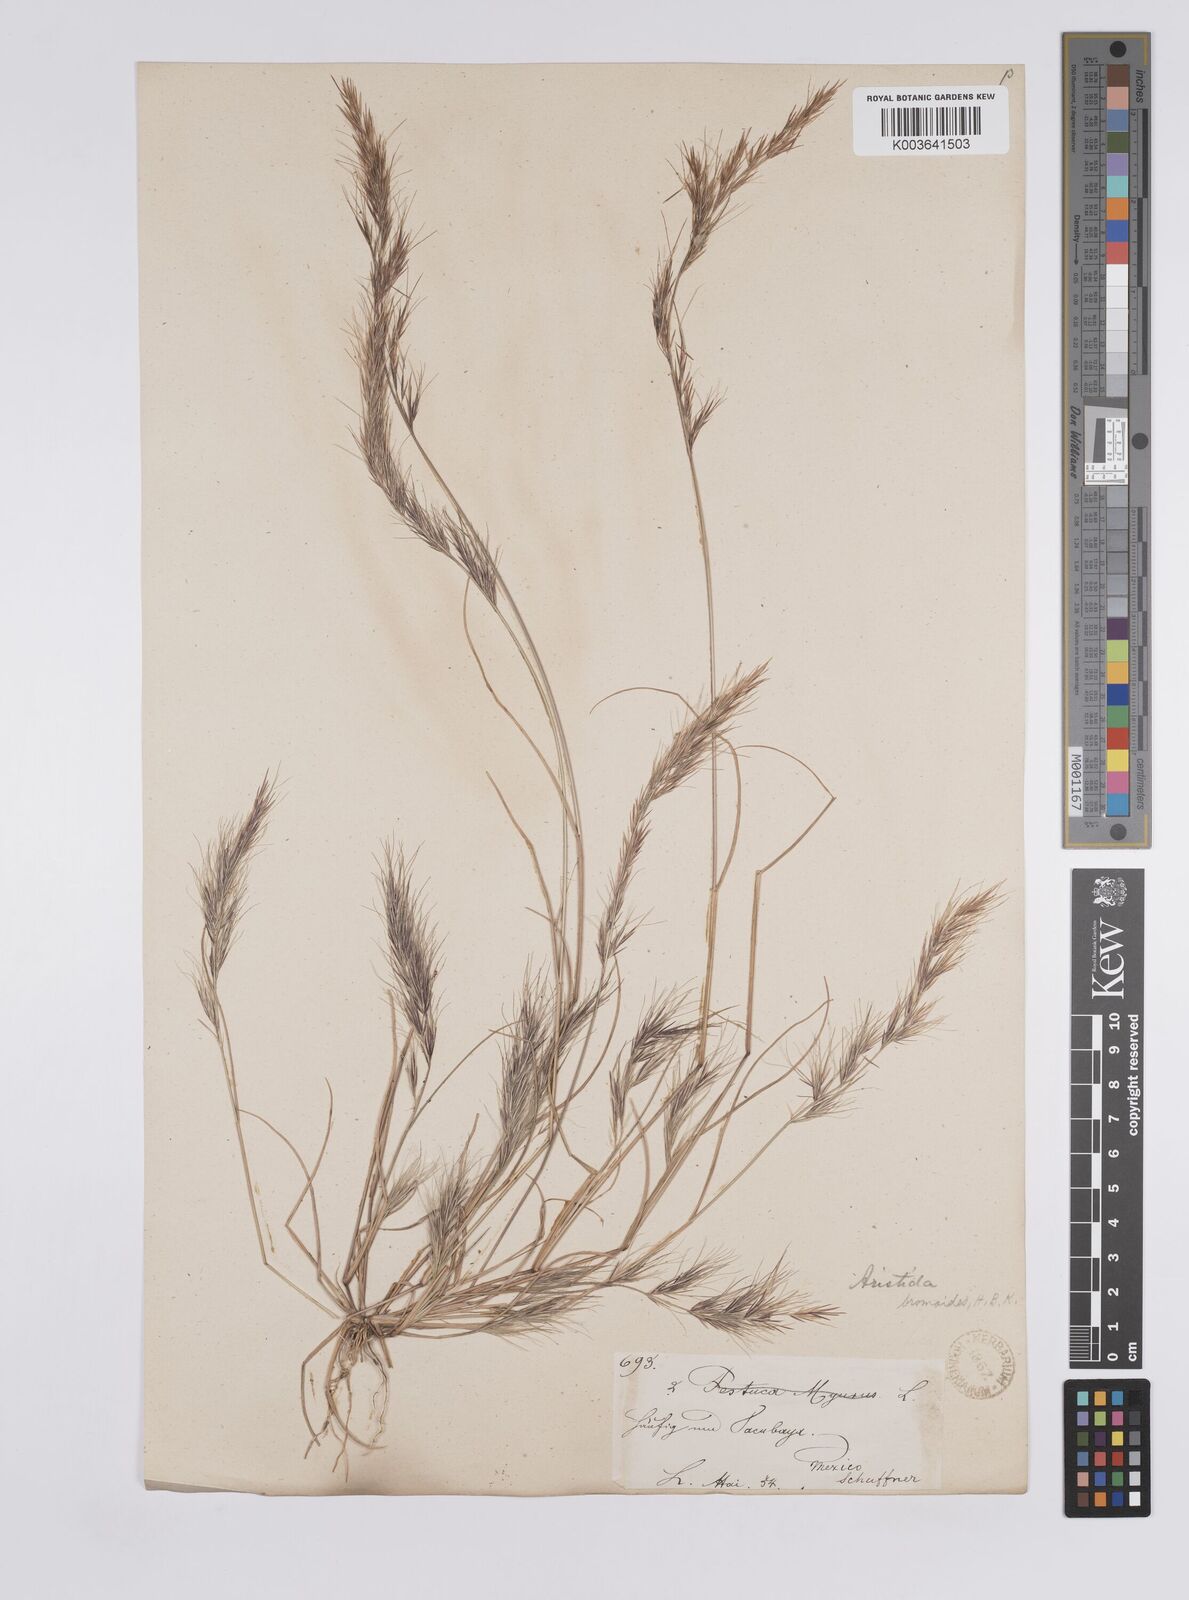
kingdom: Plantae
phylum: Tracheophyta
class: Liliopsida
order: Poales
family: Poaceae
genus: Aristida
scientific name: Aristida adscensionis
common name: Sixweeks threeawn
